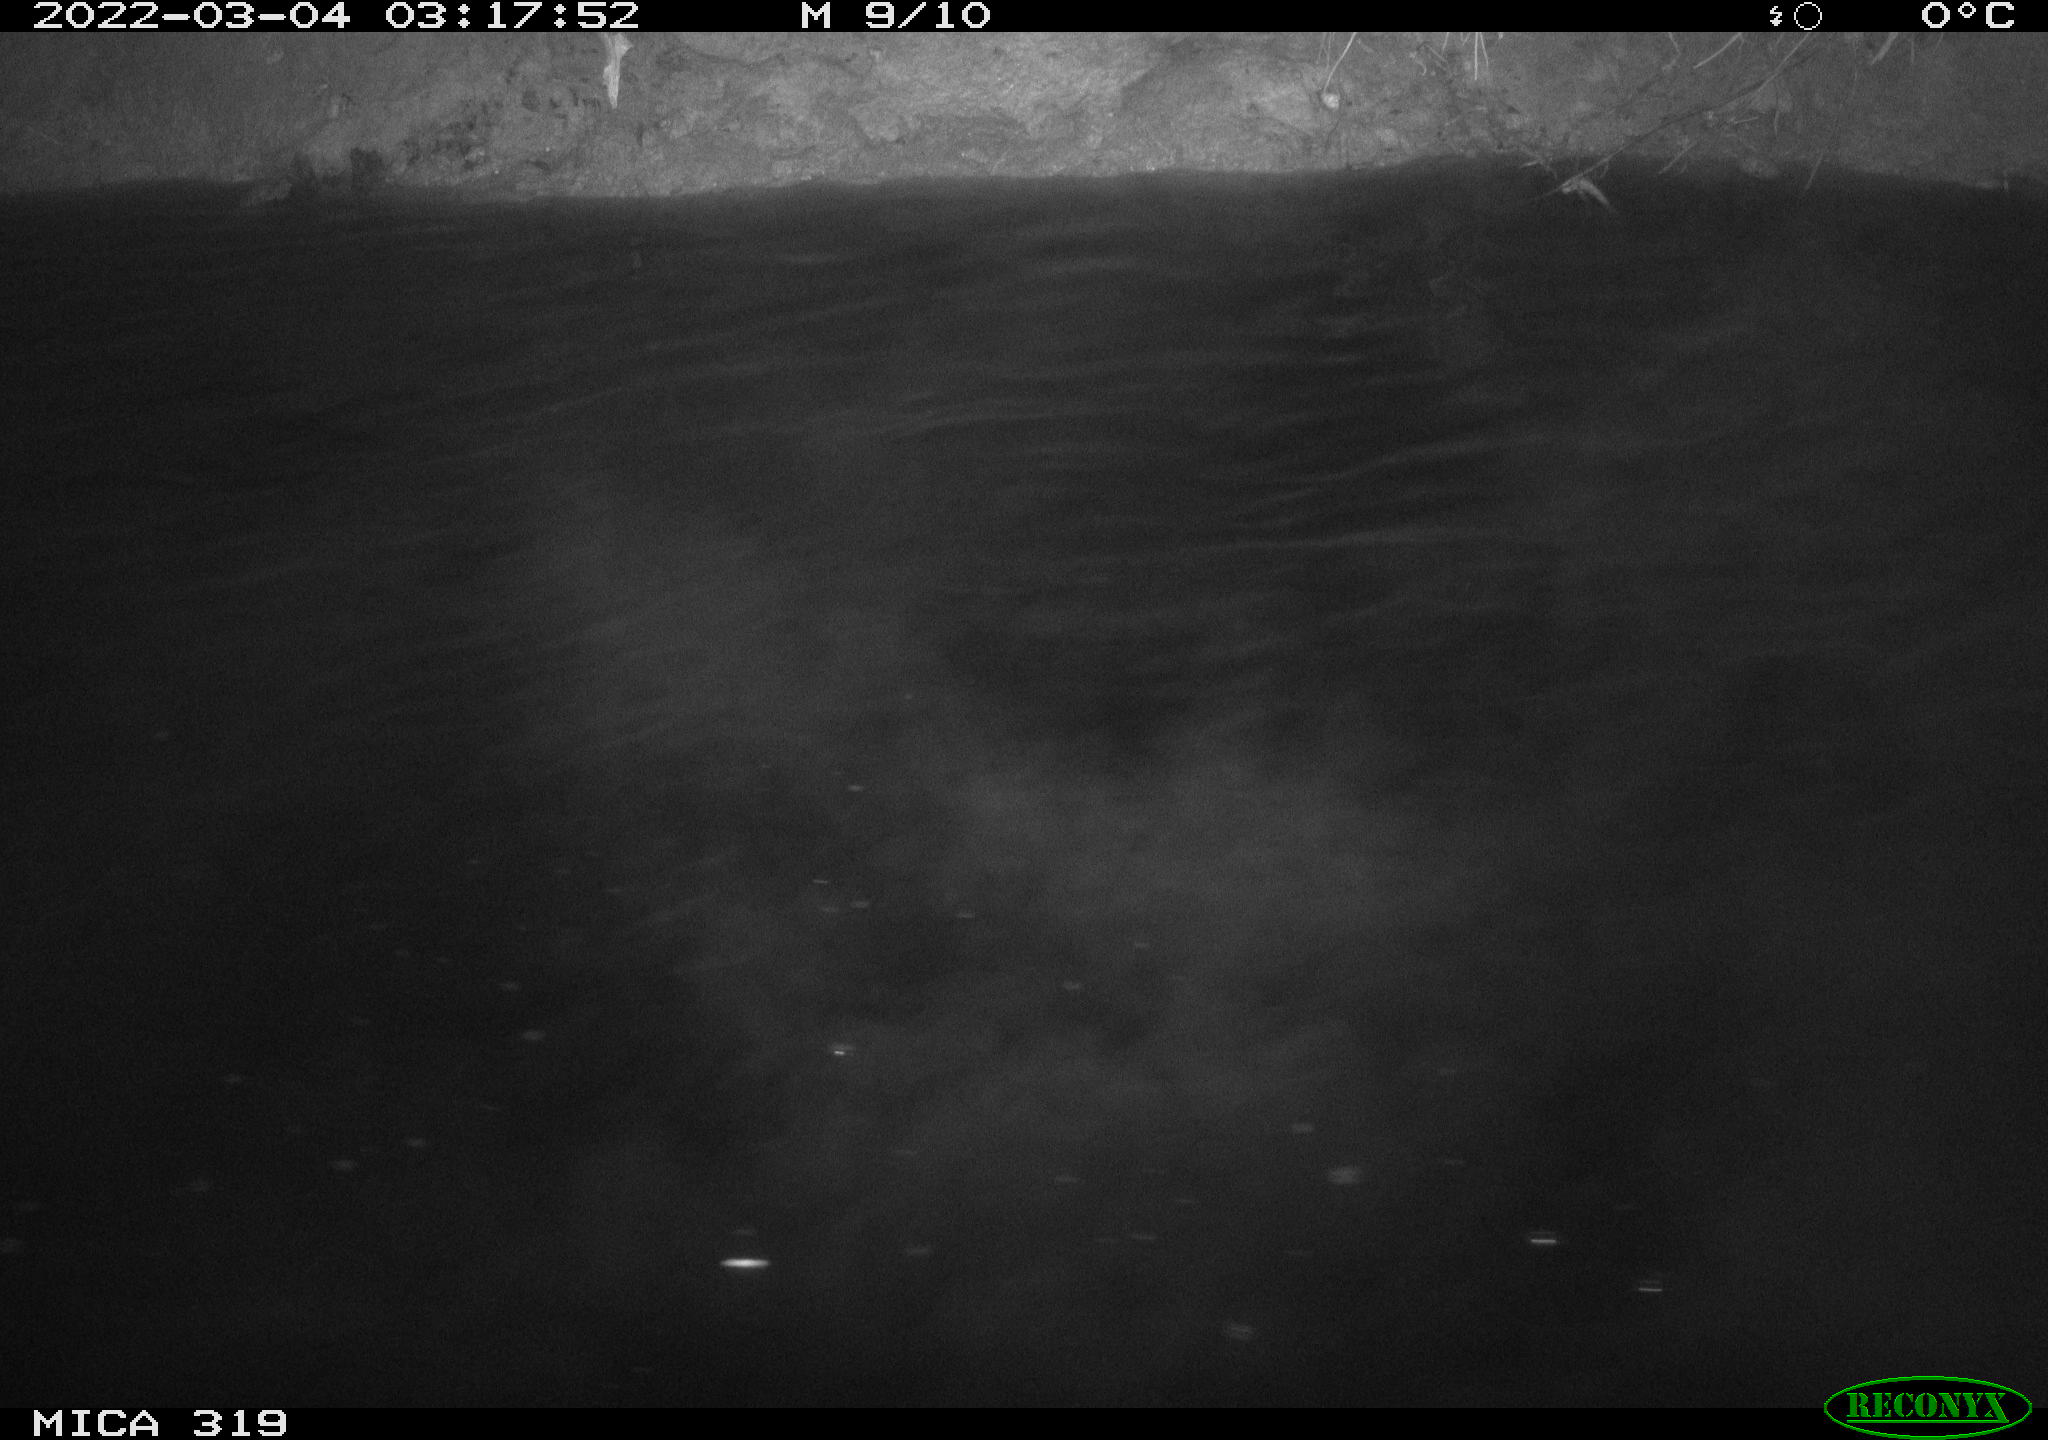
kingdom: Animalia
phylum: Chordata
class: Aves
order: Anseriformes
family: Anatidae
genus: Anas
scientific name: Anas platyrhynchos
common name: Mallard
